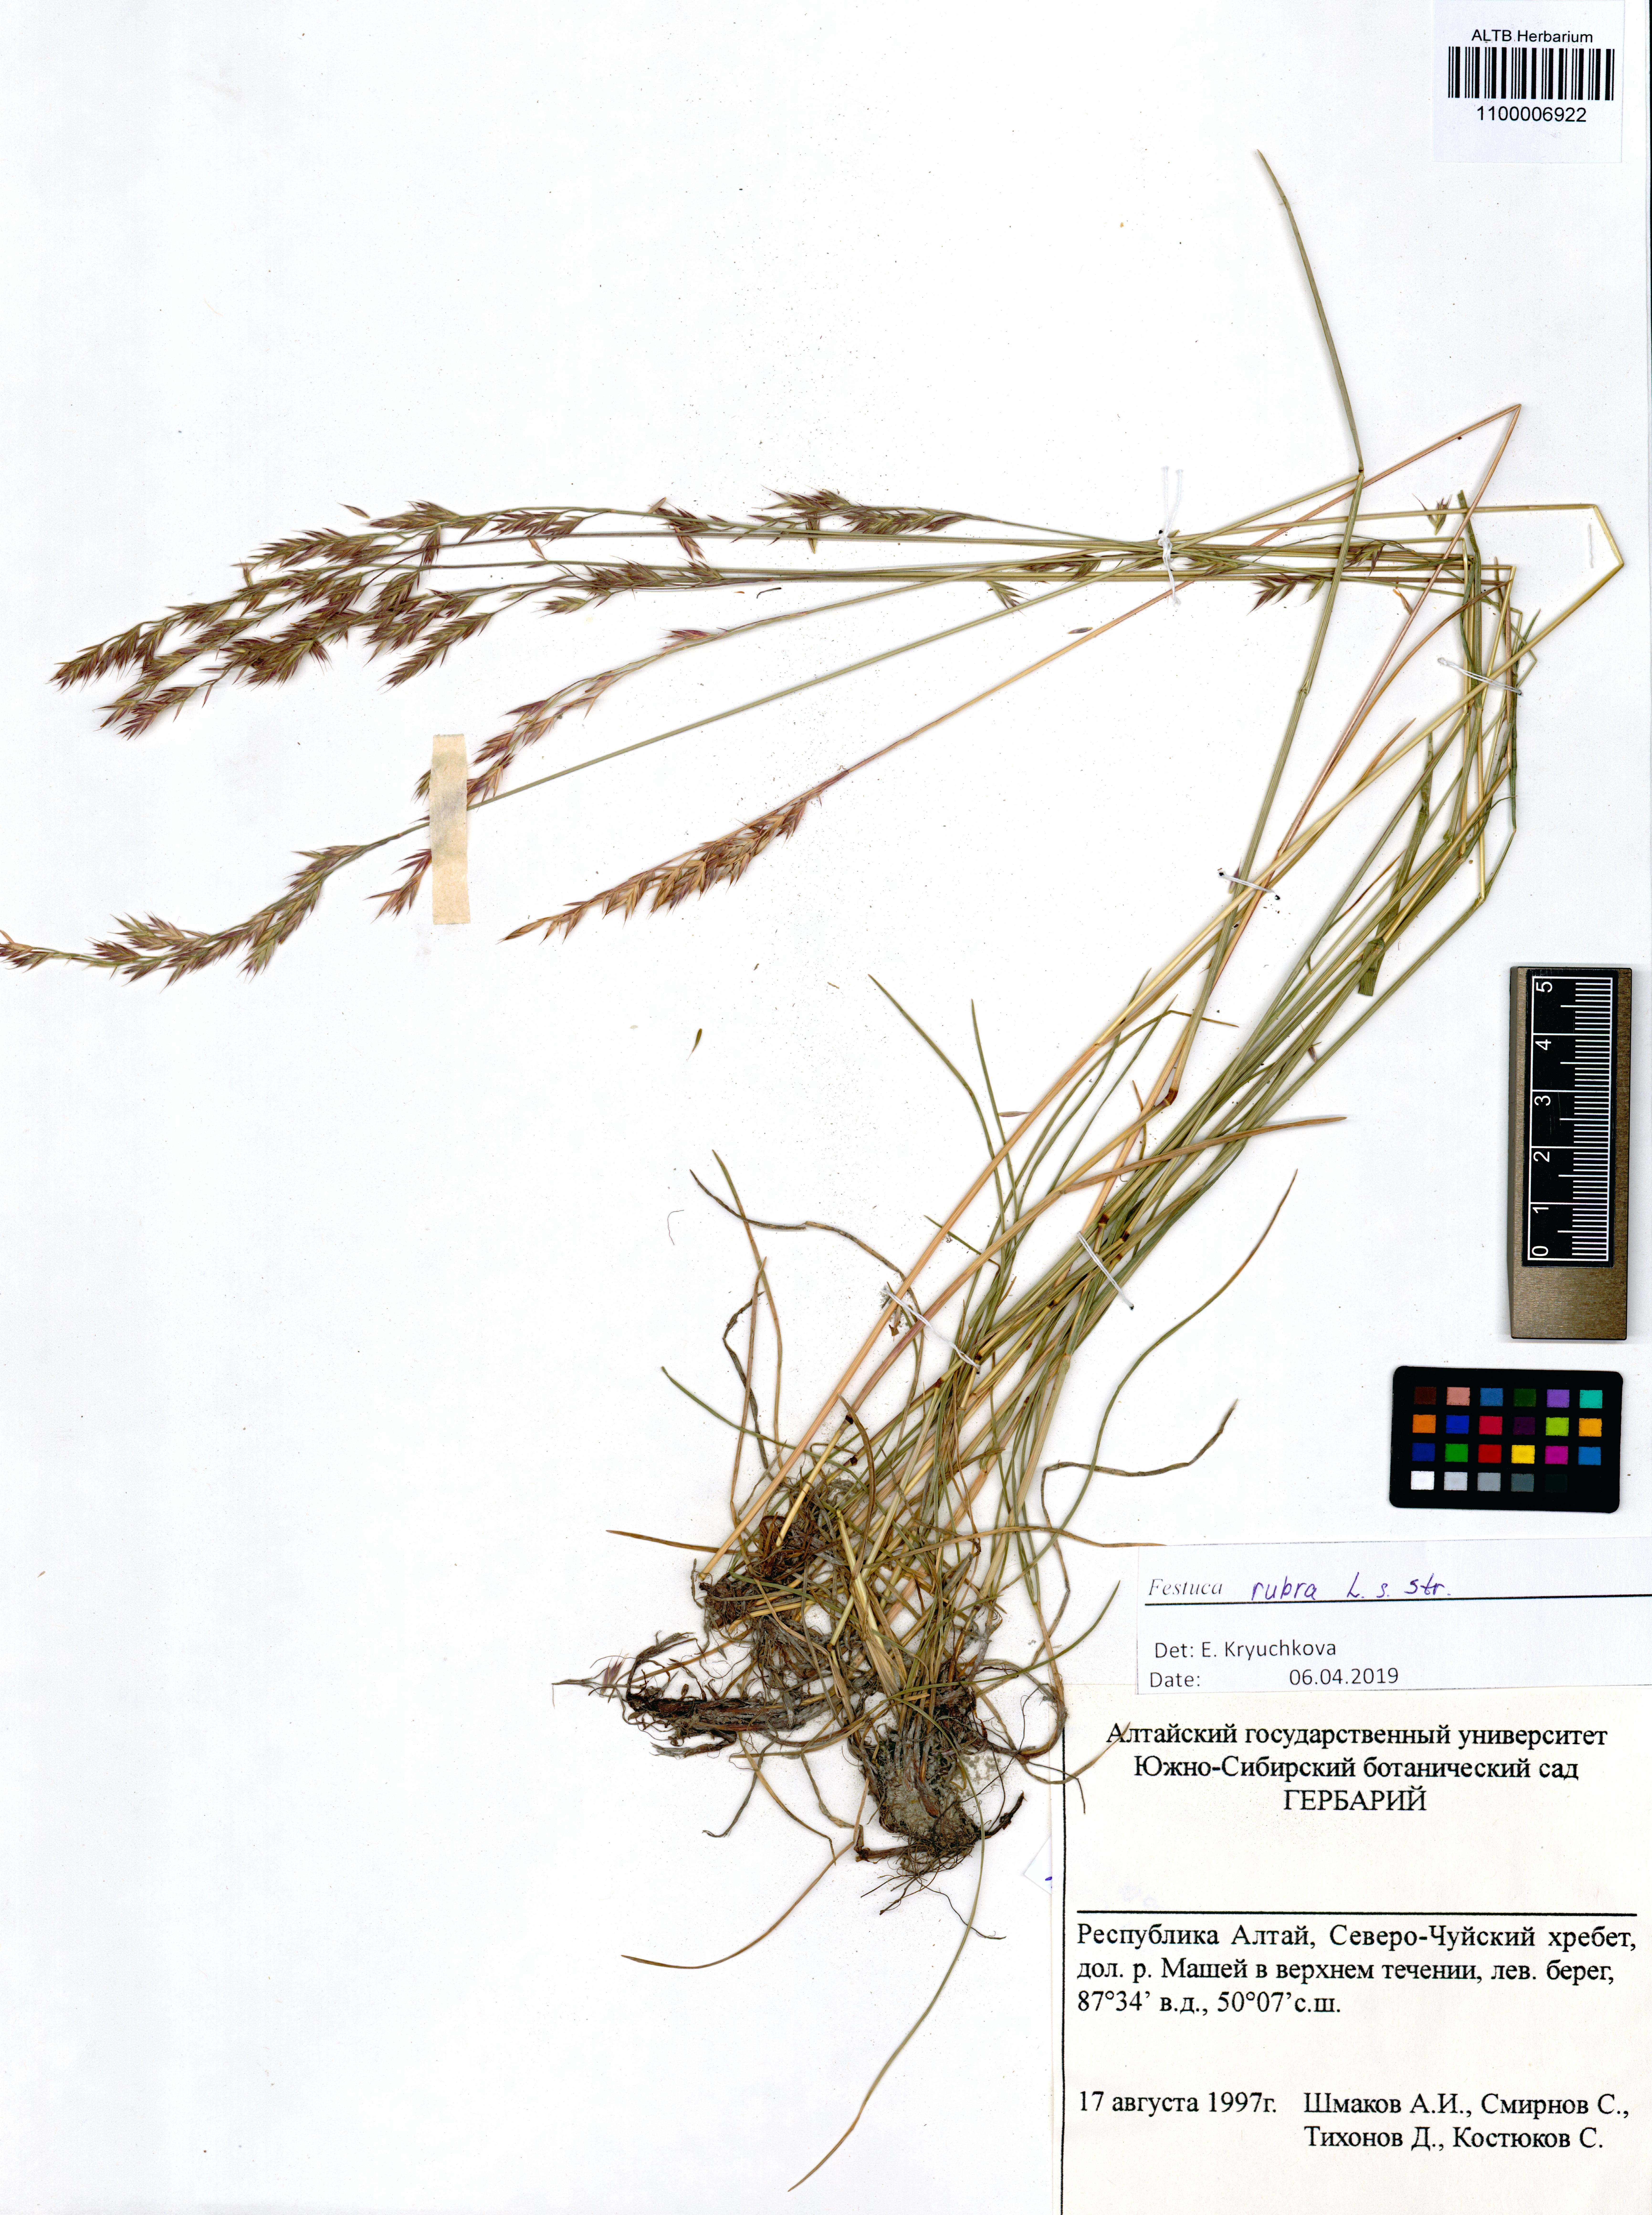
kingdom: Plantae
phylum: Tracheophyta
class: Liliopsida
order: Poales
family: Poaceae
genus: Festuca
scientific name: Festuca rubra
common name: Red fescue
